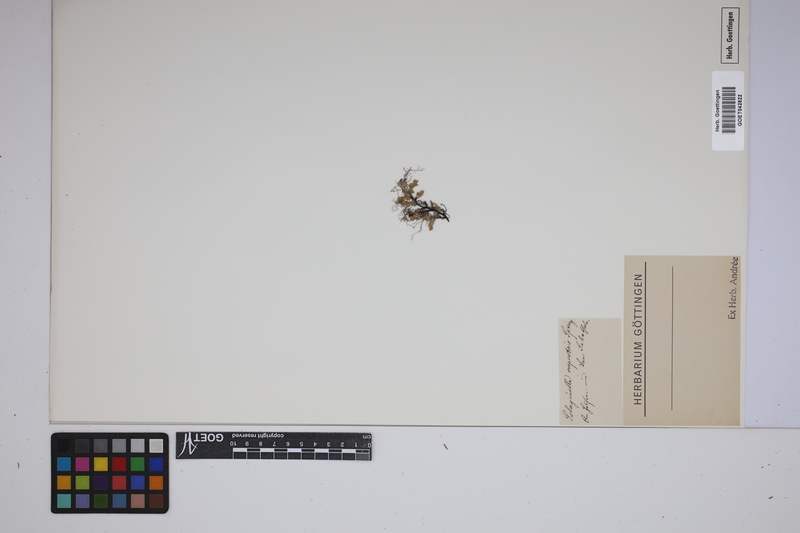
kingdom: Plantae
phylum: Tracheophyta
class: Lycopodiopsida
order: Selaginellales
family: Selaginellaceae
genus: Selaginella
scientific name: Selaginella rupestris
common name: Dwarf spikemoss
